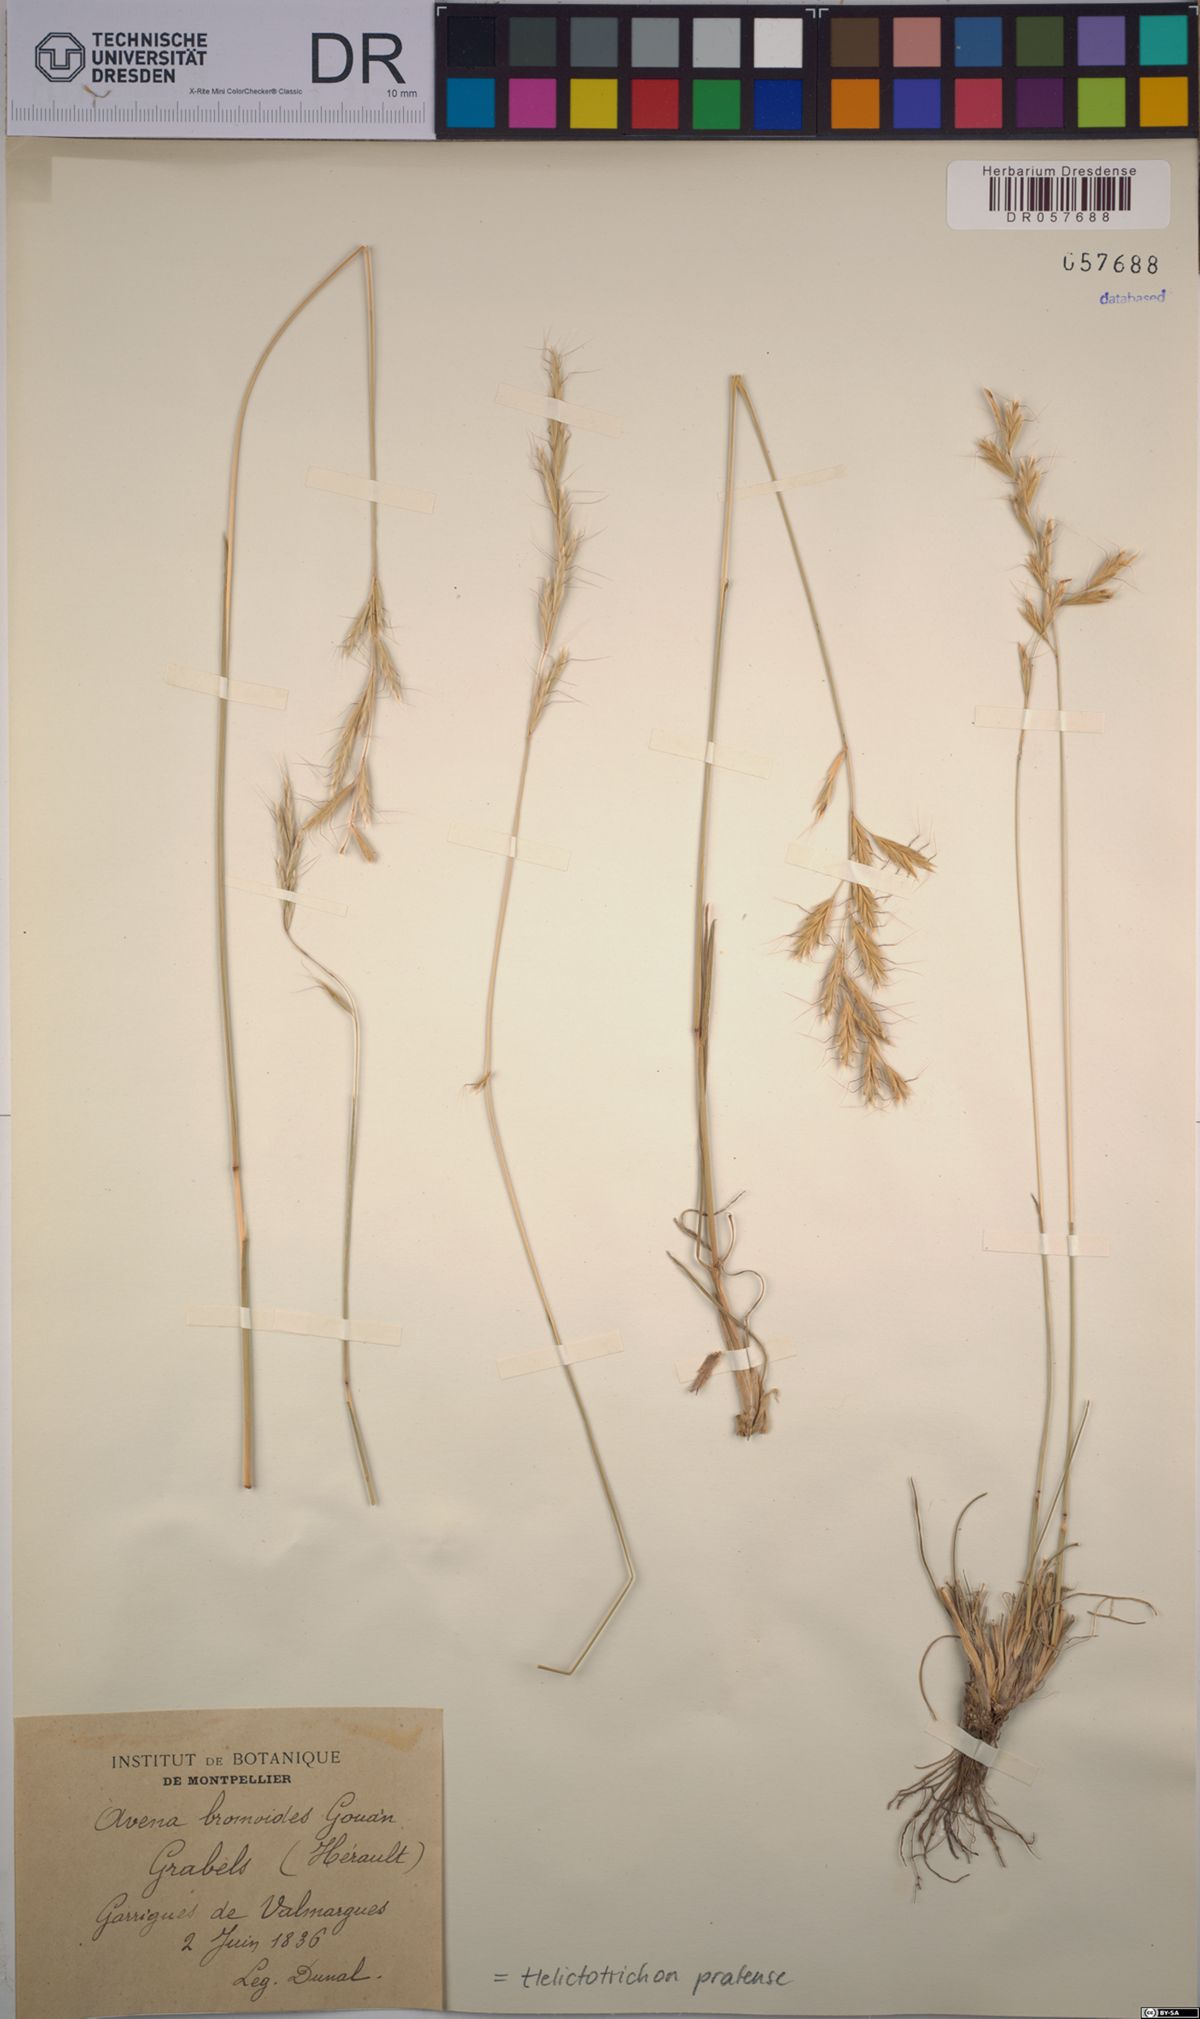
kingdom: Plantae
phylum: Tracheophyta
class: Liliopsida
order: Poales
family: Poaceae
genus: Helictochloa
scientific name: Helictochloa pratensis
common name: Meadow oat grass
